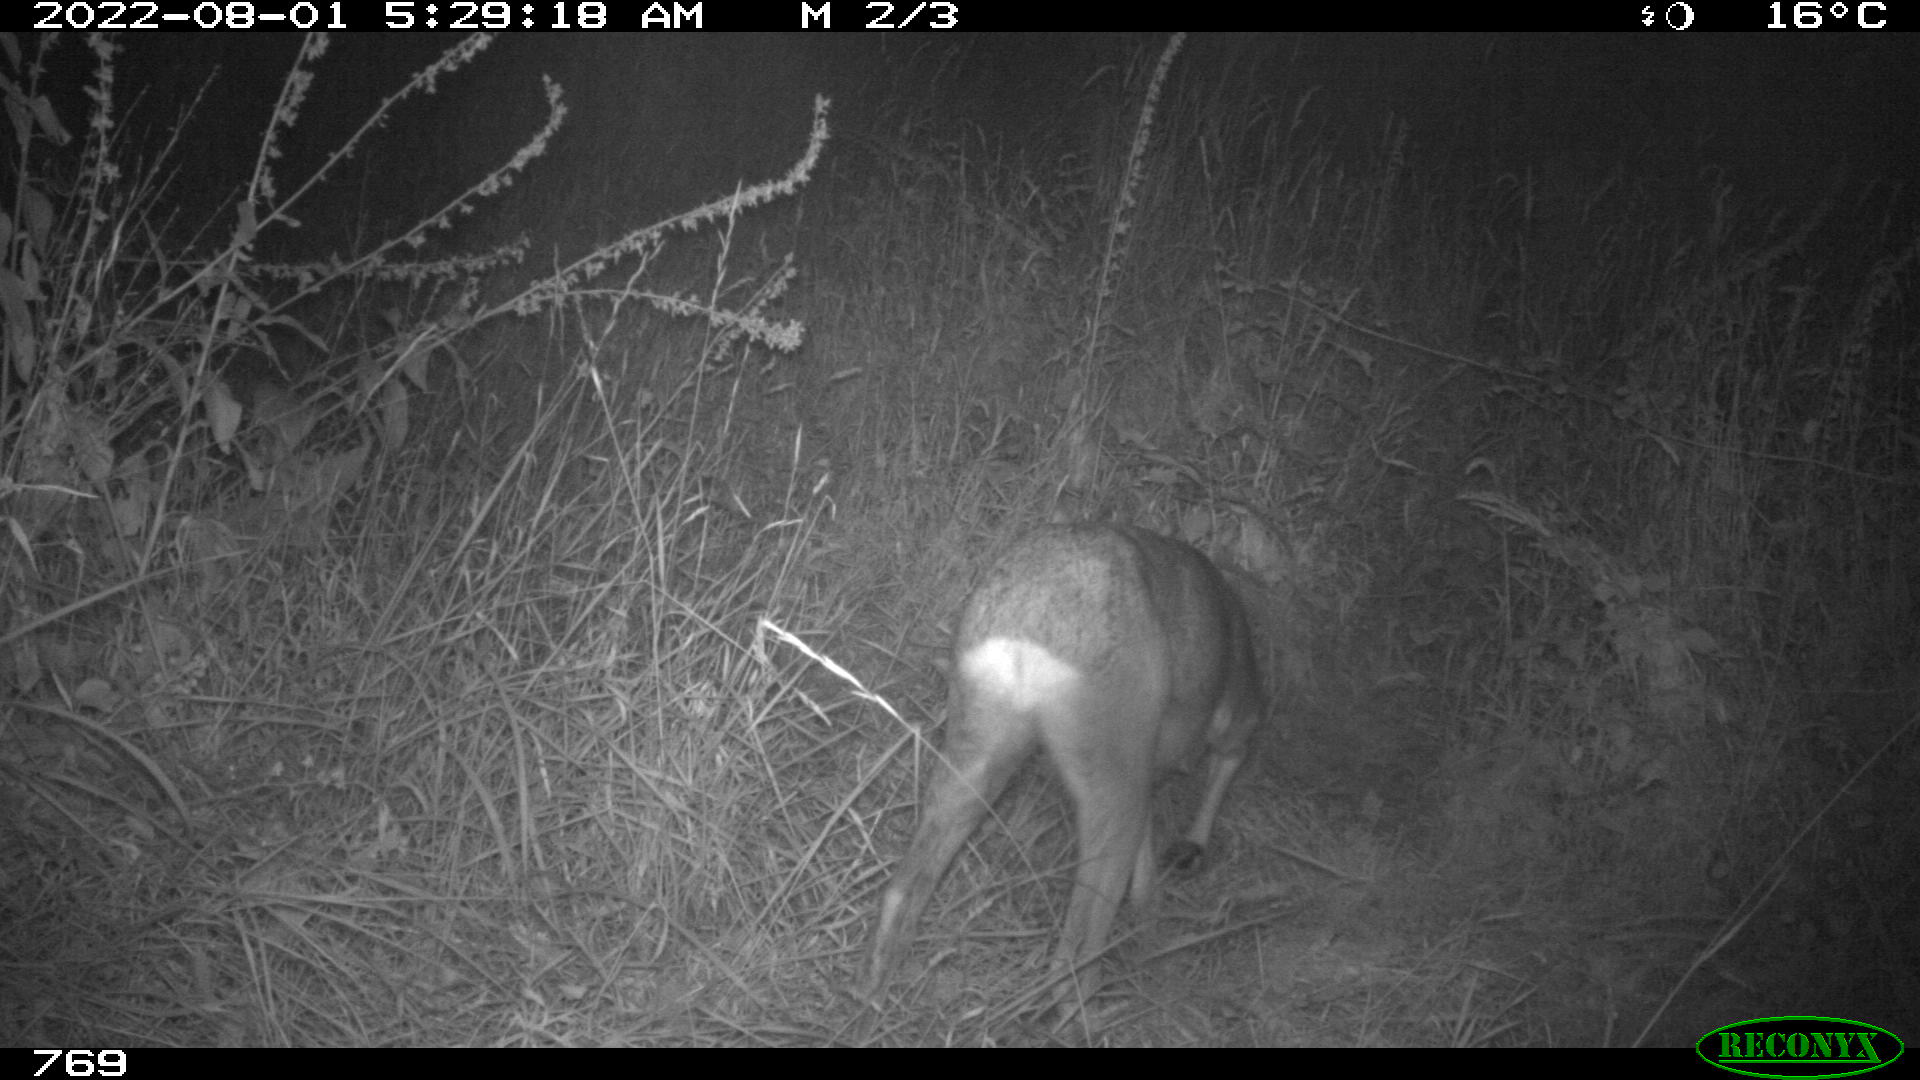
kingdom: Animalia
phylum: Chordata
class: Mammalia
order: Artiodactyla
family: Cervidae
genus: Capreolus
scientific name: Capreolus capreolus
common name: Western roe deer
